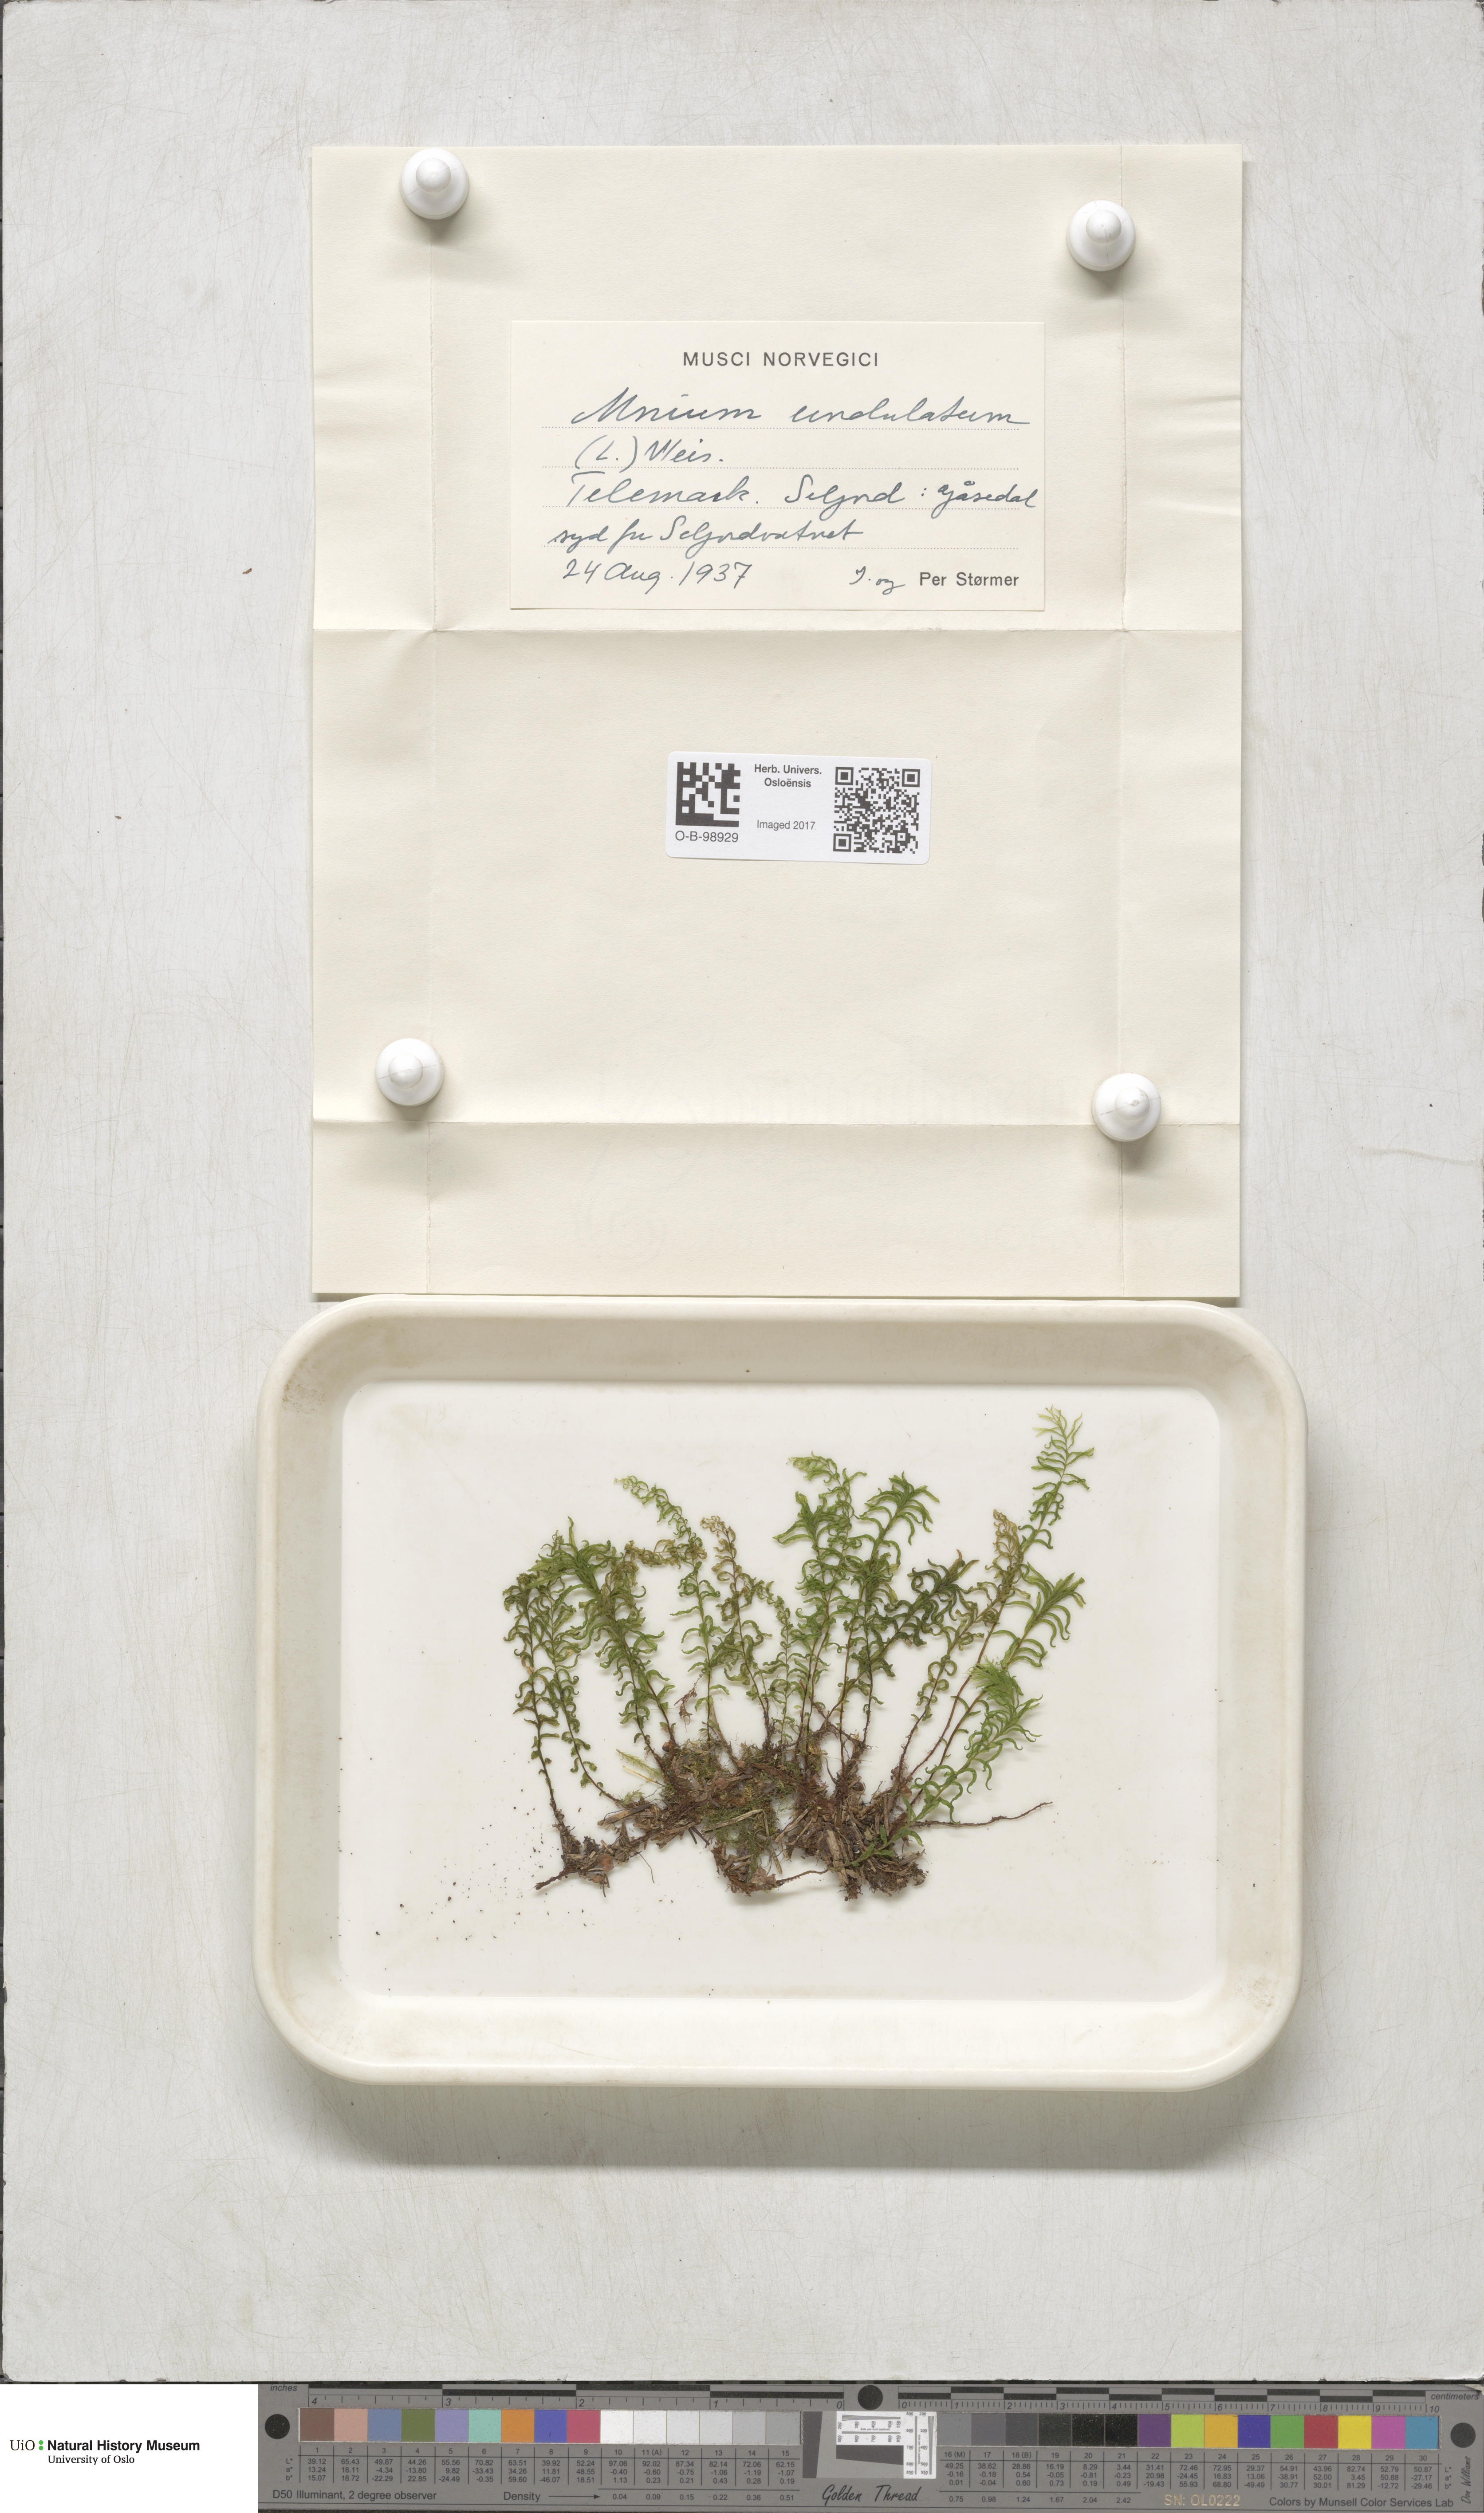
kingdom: Plantae
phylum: Bryophyta
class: Bryopsida
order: Bryales
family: Mniaceae
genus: Plagiomnium
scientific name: Plagiomnium undulatum
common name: Hart's-tongue thyme-moss
